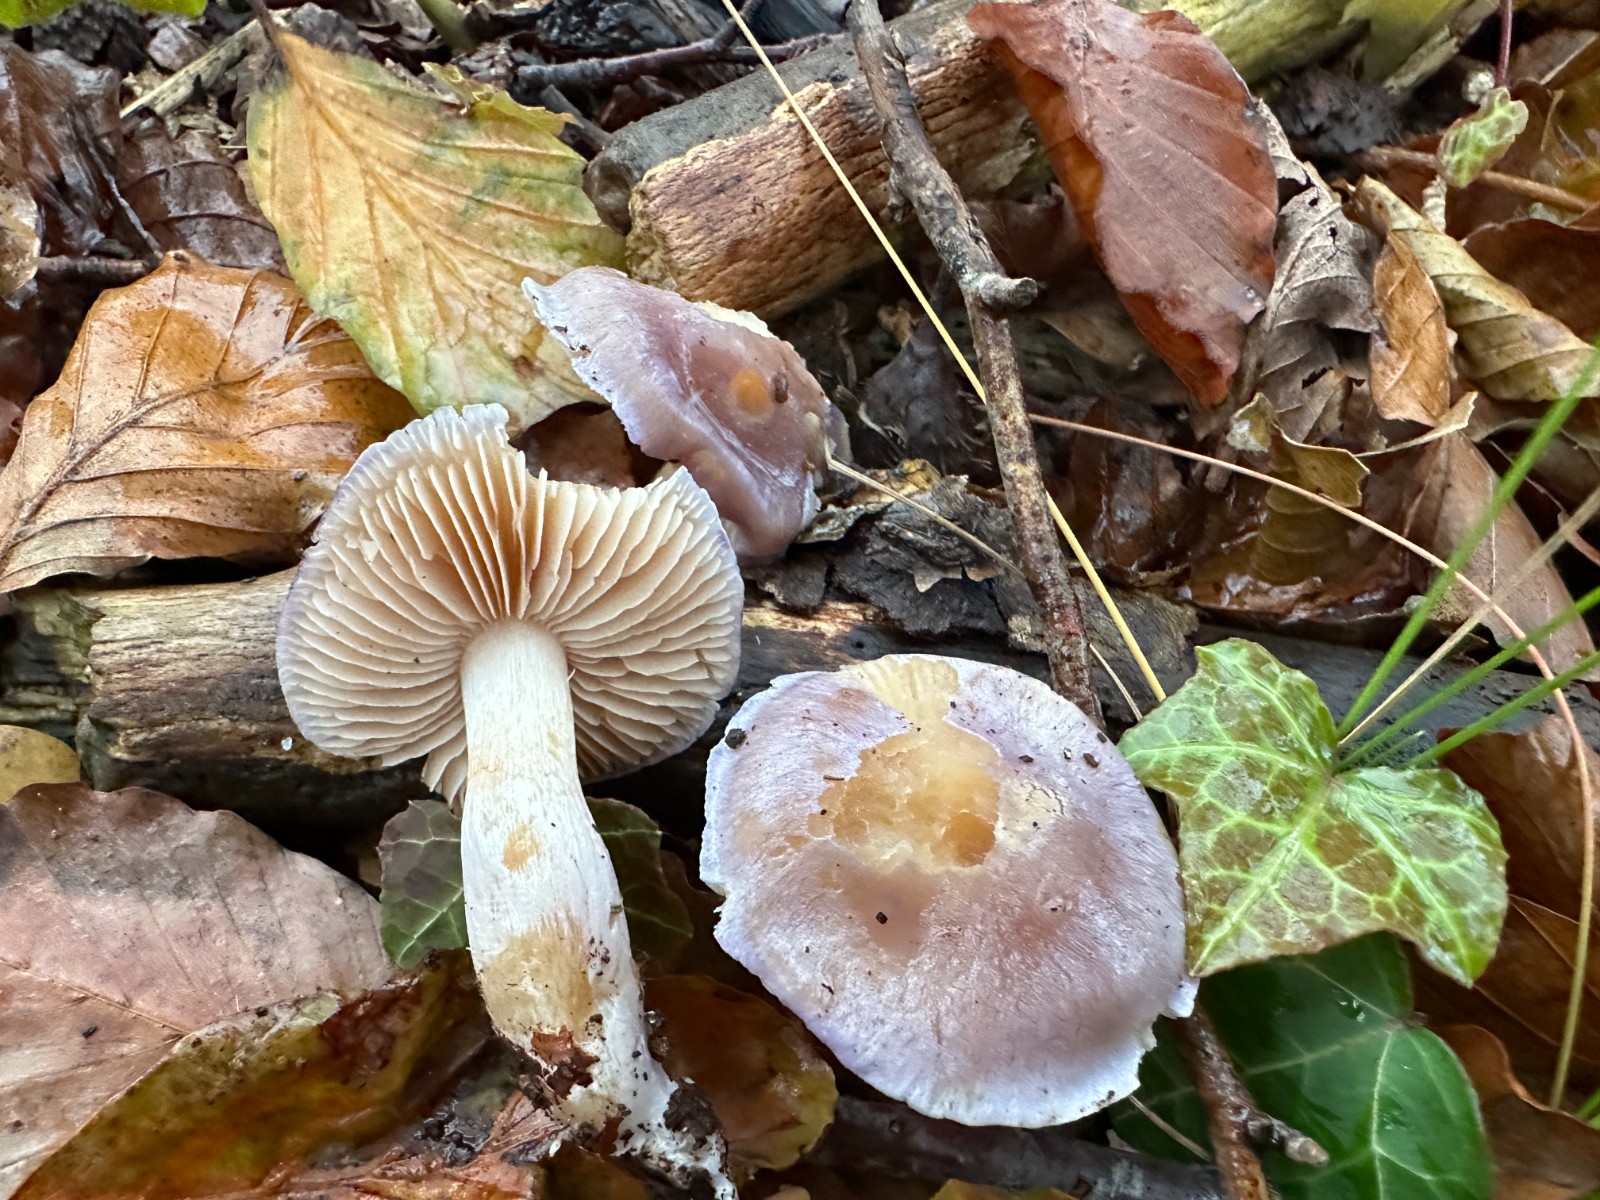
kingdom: Fungi
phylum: Basidiomycota
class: Agaricomycetes
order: Agaricales
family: Cortinariaceae
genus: Thaxterogaster
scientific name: Thaxterogaster croceocoeruleus
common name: blågullig slørhat
